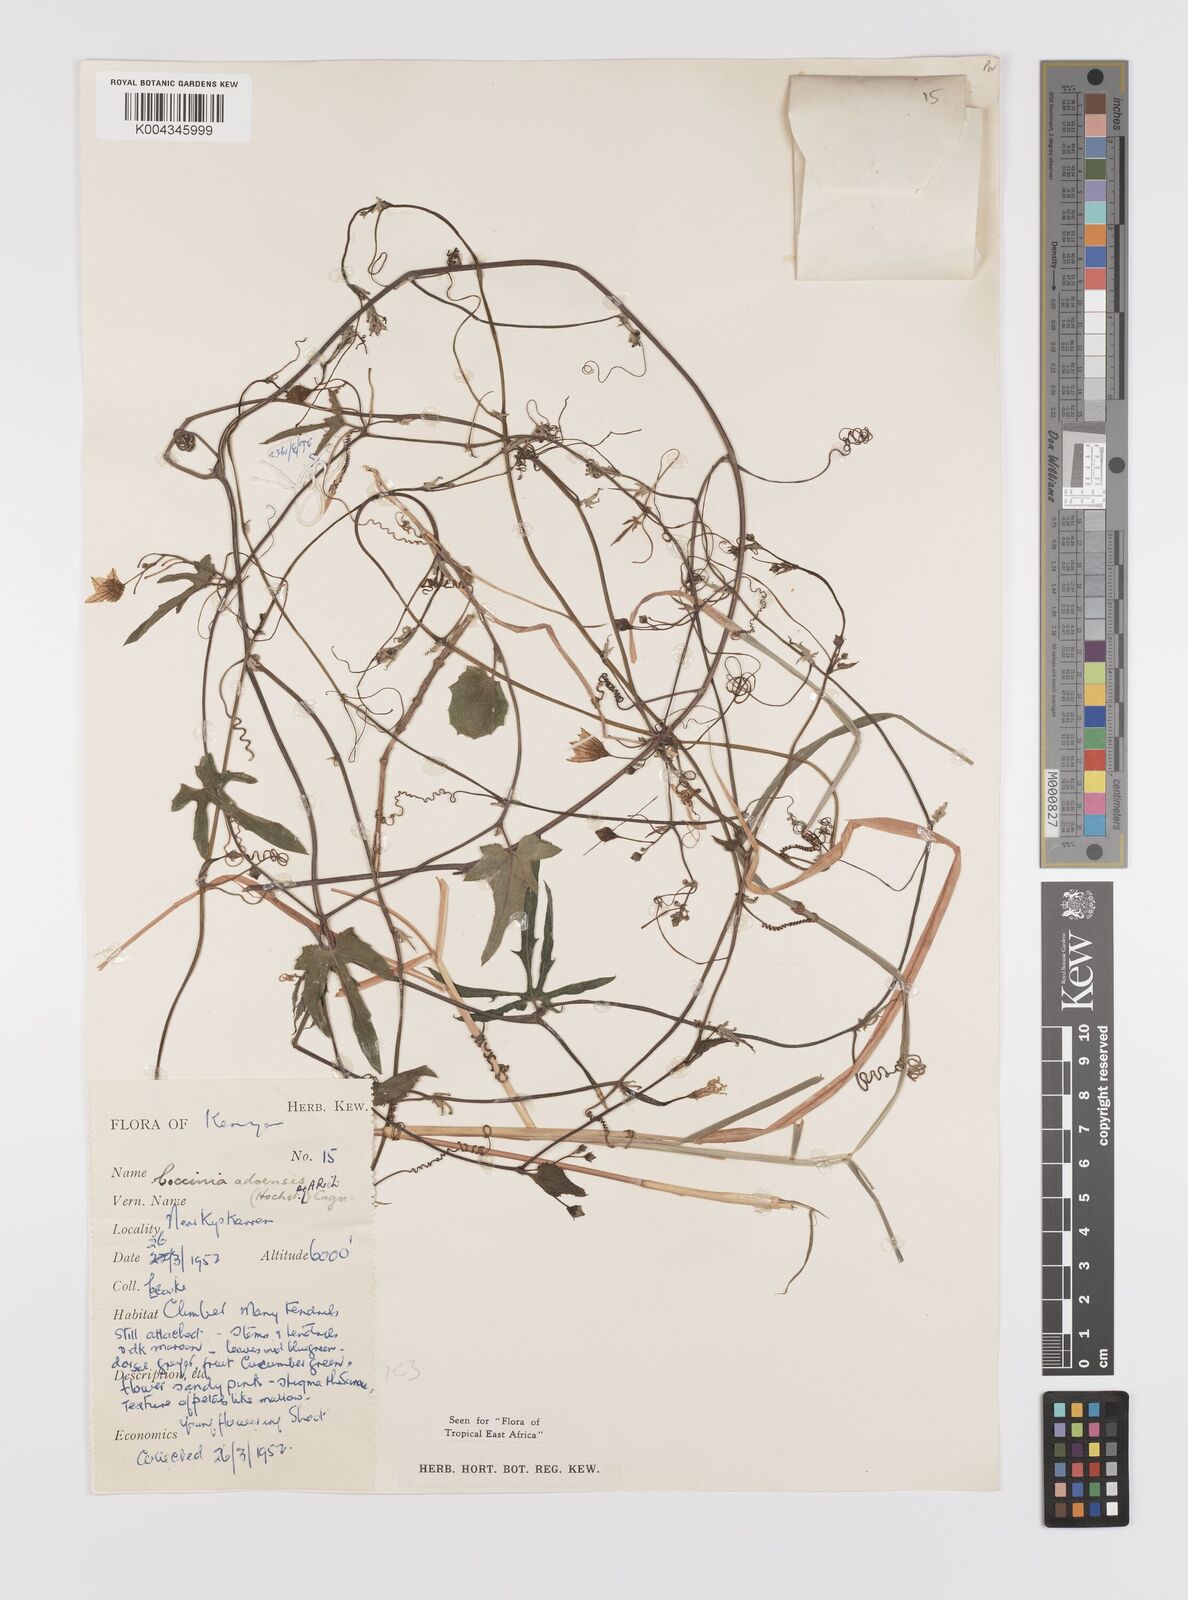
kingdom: Plantae
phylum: Tracheophyta
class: Magnoliopsida
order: Cucurbitales
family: Cucurbitaceae
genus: Coccinia
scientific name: Coccinia adoensis
